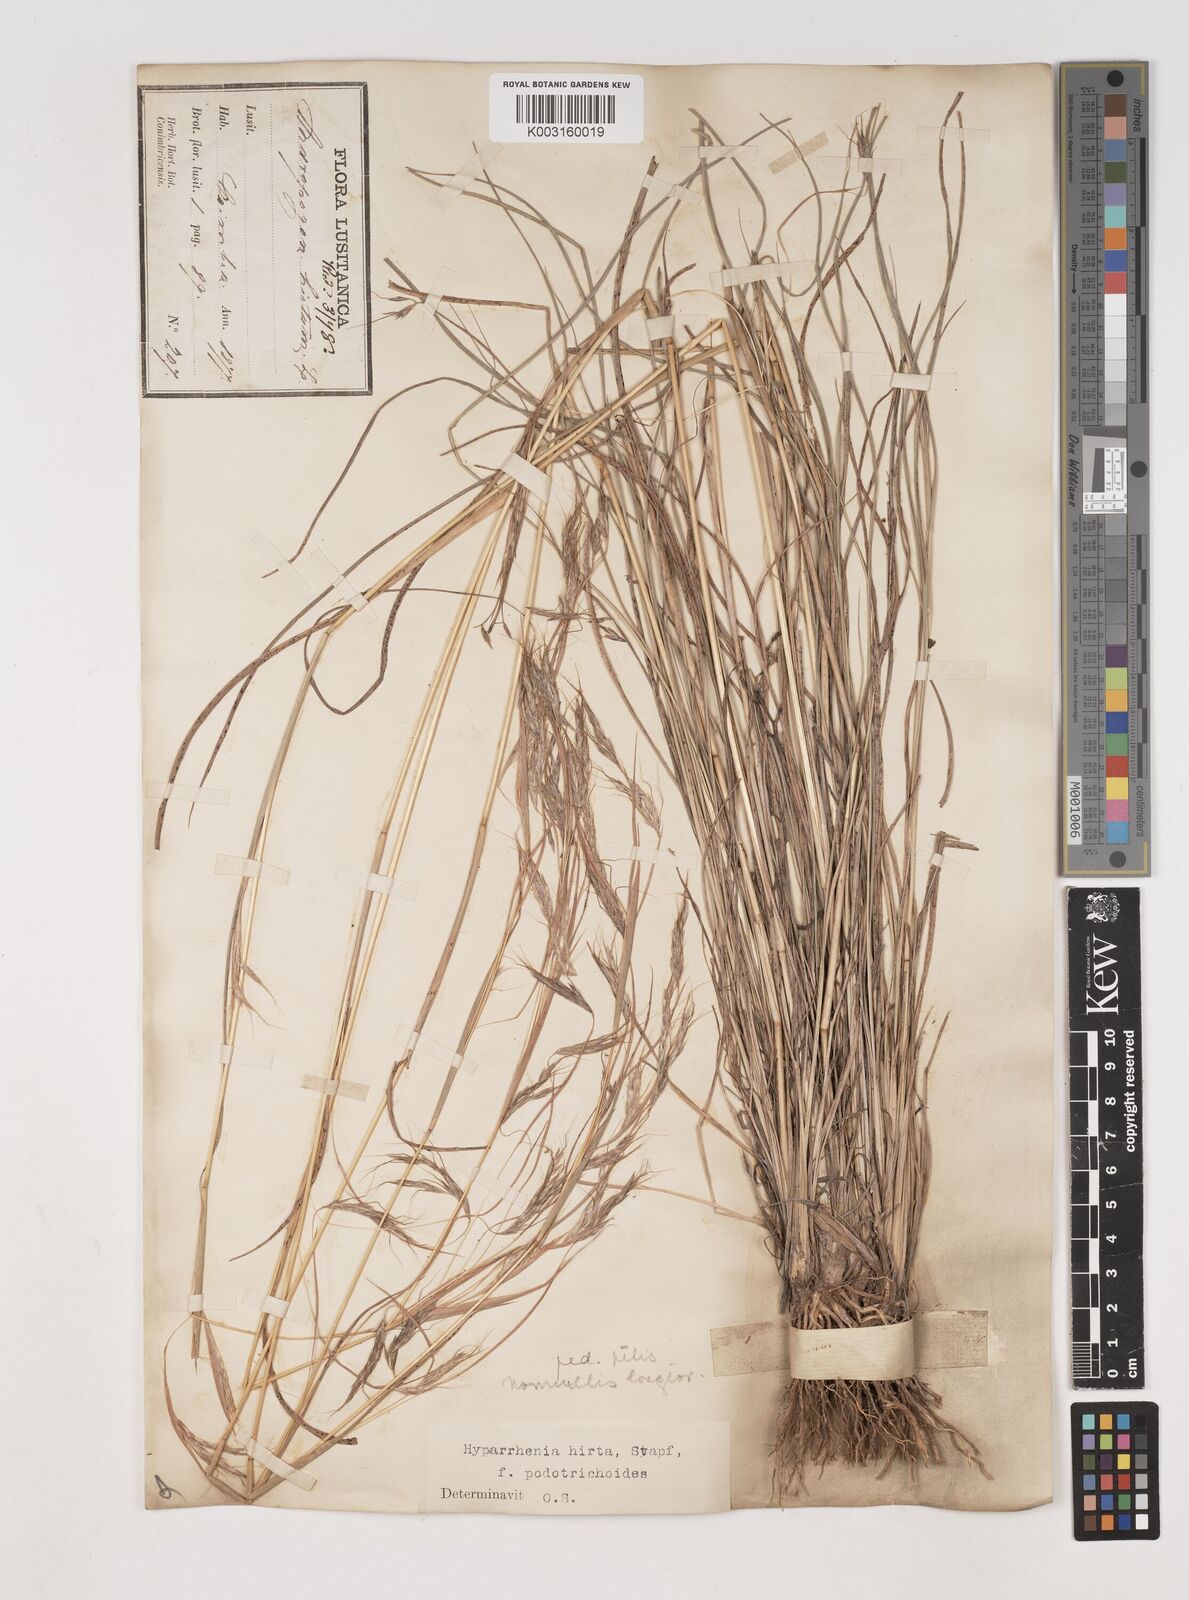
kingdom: Plantae
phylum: Tracheophyta
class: Liliopsida
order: Poales
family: Poaceae
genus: Hyparrhenia
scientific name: Hyparrhenia hirta
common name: Thatching grass
